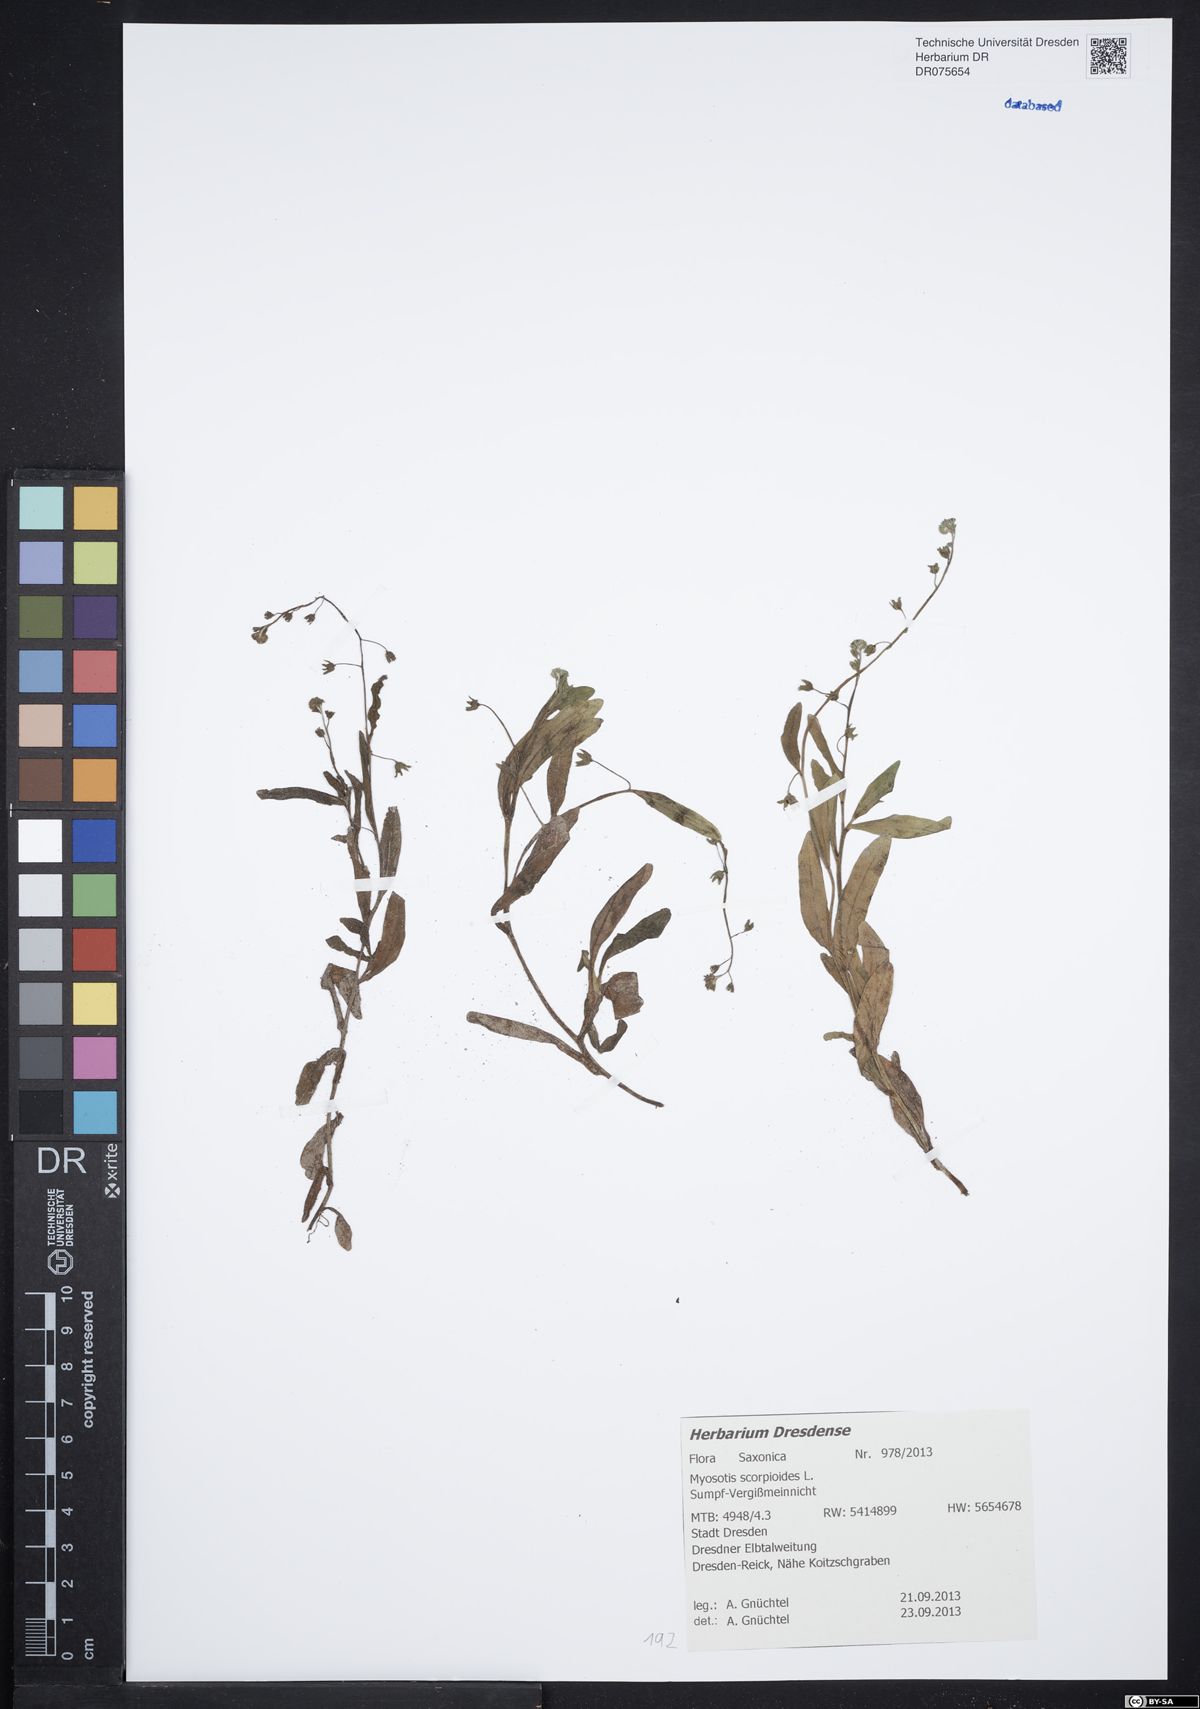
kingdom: Plantae
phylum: Tracheophyta
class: Magnoliopsida
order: Boraginales
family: Boraginaceae
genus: Myosotis
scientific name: Myosotis scorpioides
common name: Water forget-me-not
